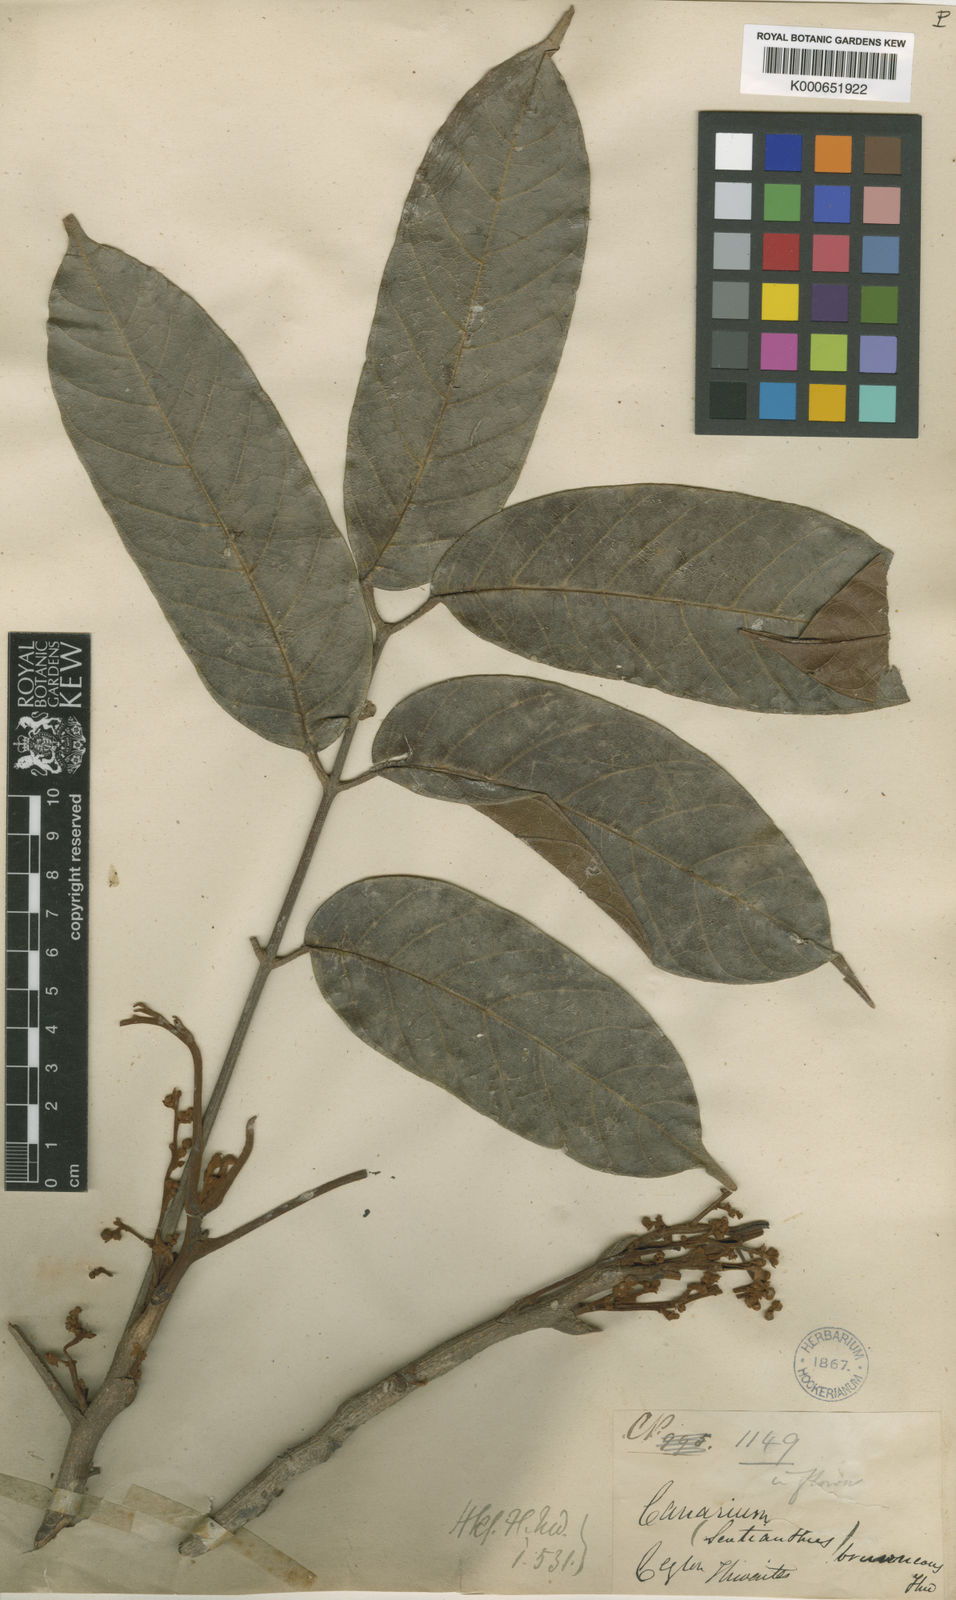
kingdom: Plantae
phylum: Tracheophyta
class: Magnoliopsida
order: Sapindales
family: Burseraceae
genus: Scutinanthe
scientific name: Scutinanthe brunnea
